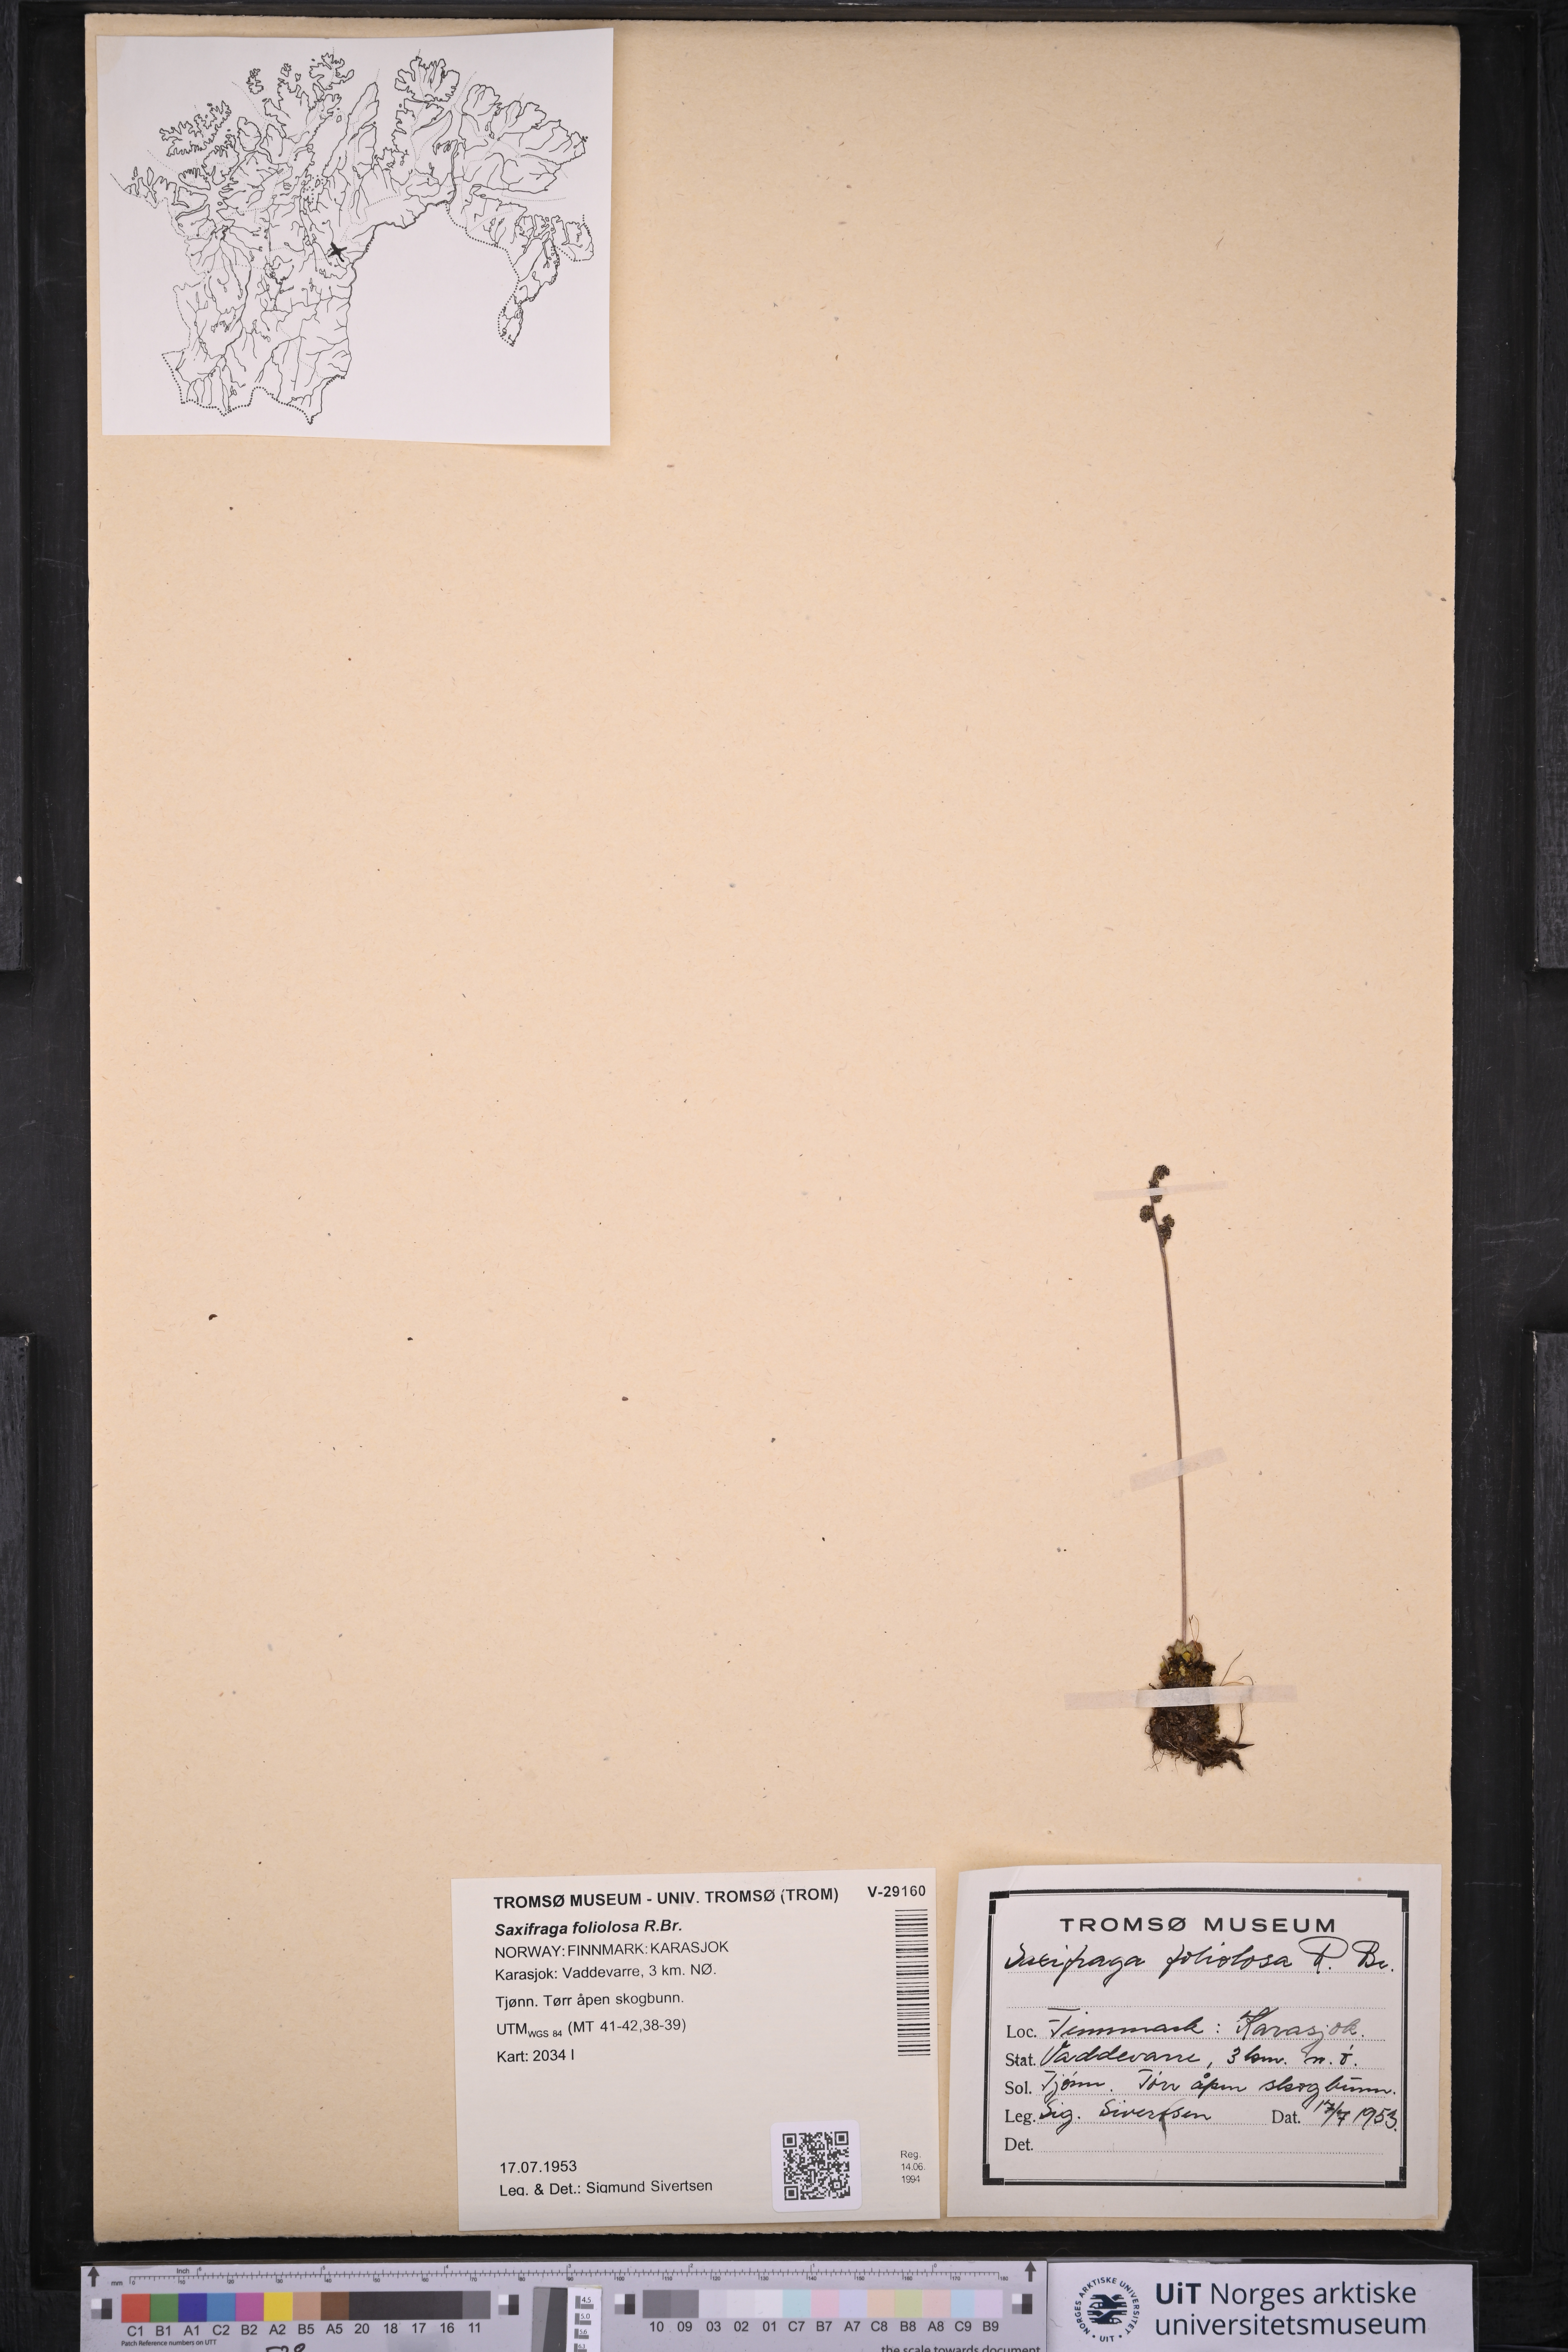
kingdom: Plantae
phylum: Tracheophyta
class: Magnoliopsida
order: Saxifragales
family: Saxifragaceae
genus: Micranthes
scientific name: Micranthes foliolosa
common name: Leafystem saxifrage
